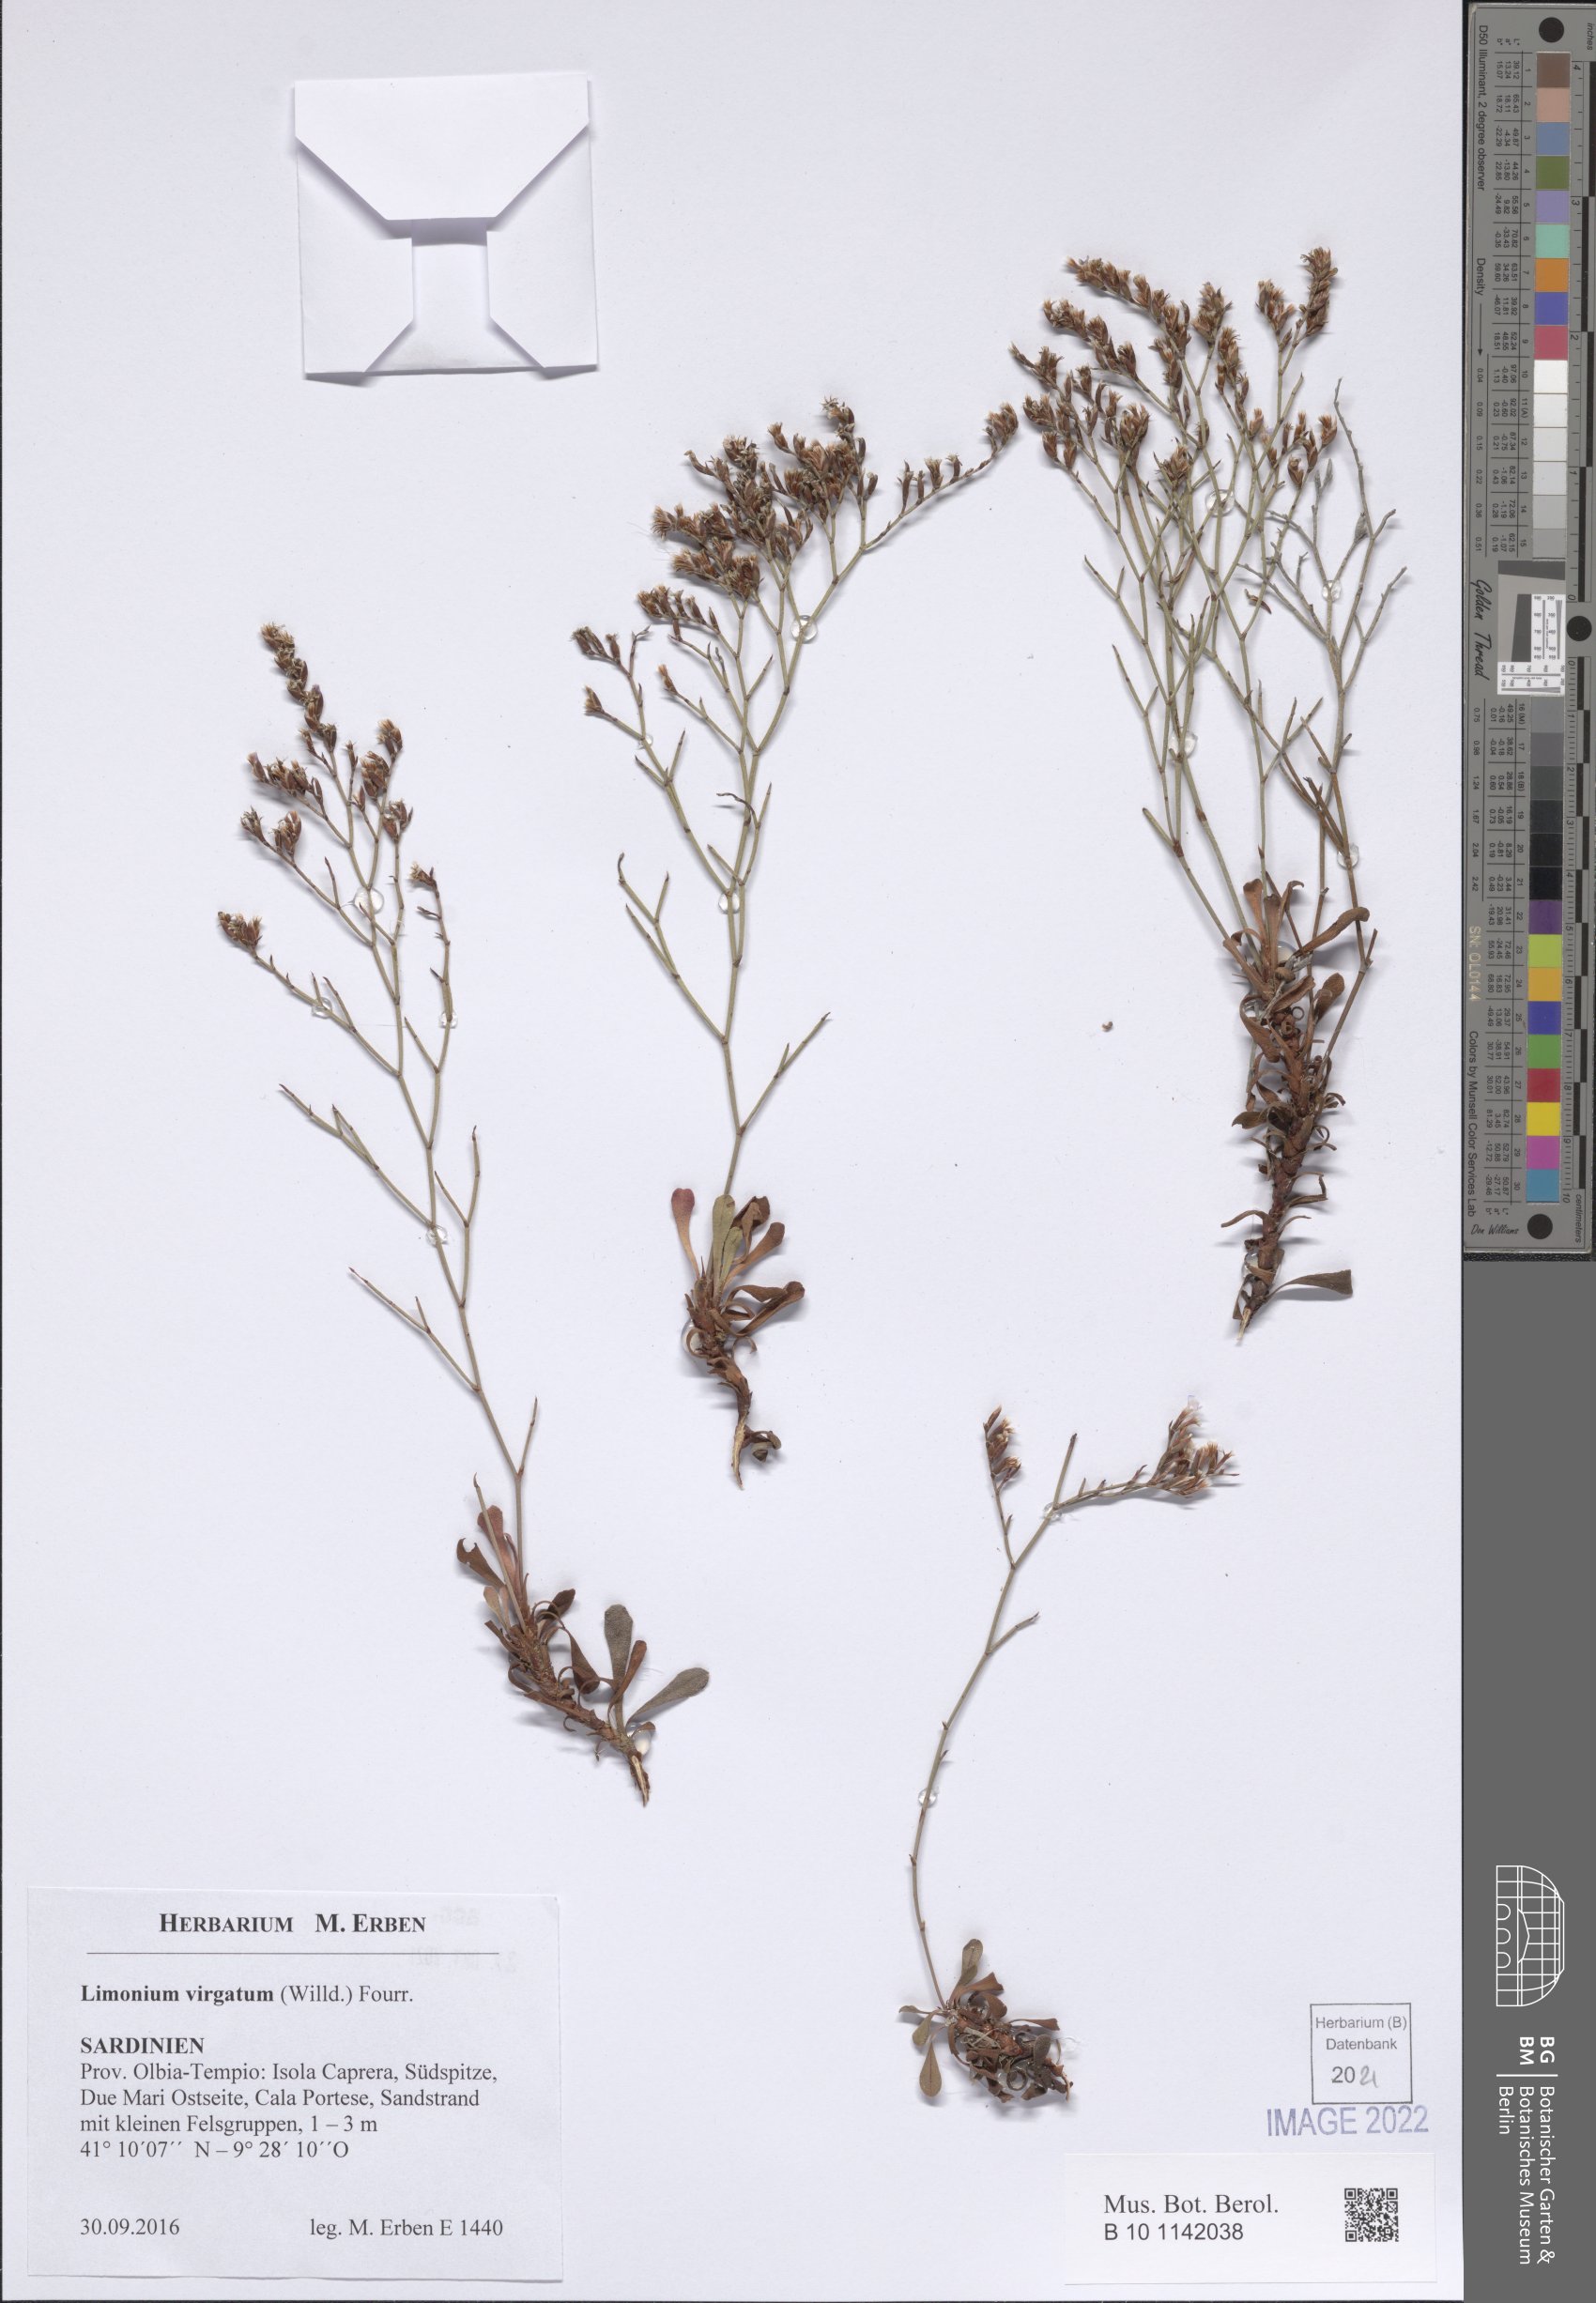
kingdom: Plantae
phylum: Tracheophyta
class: Magnoliopsida
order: Caryophyllales
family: Plumbaginaceae
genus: Limonium
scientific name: Limonium virgatum
